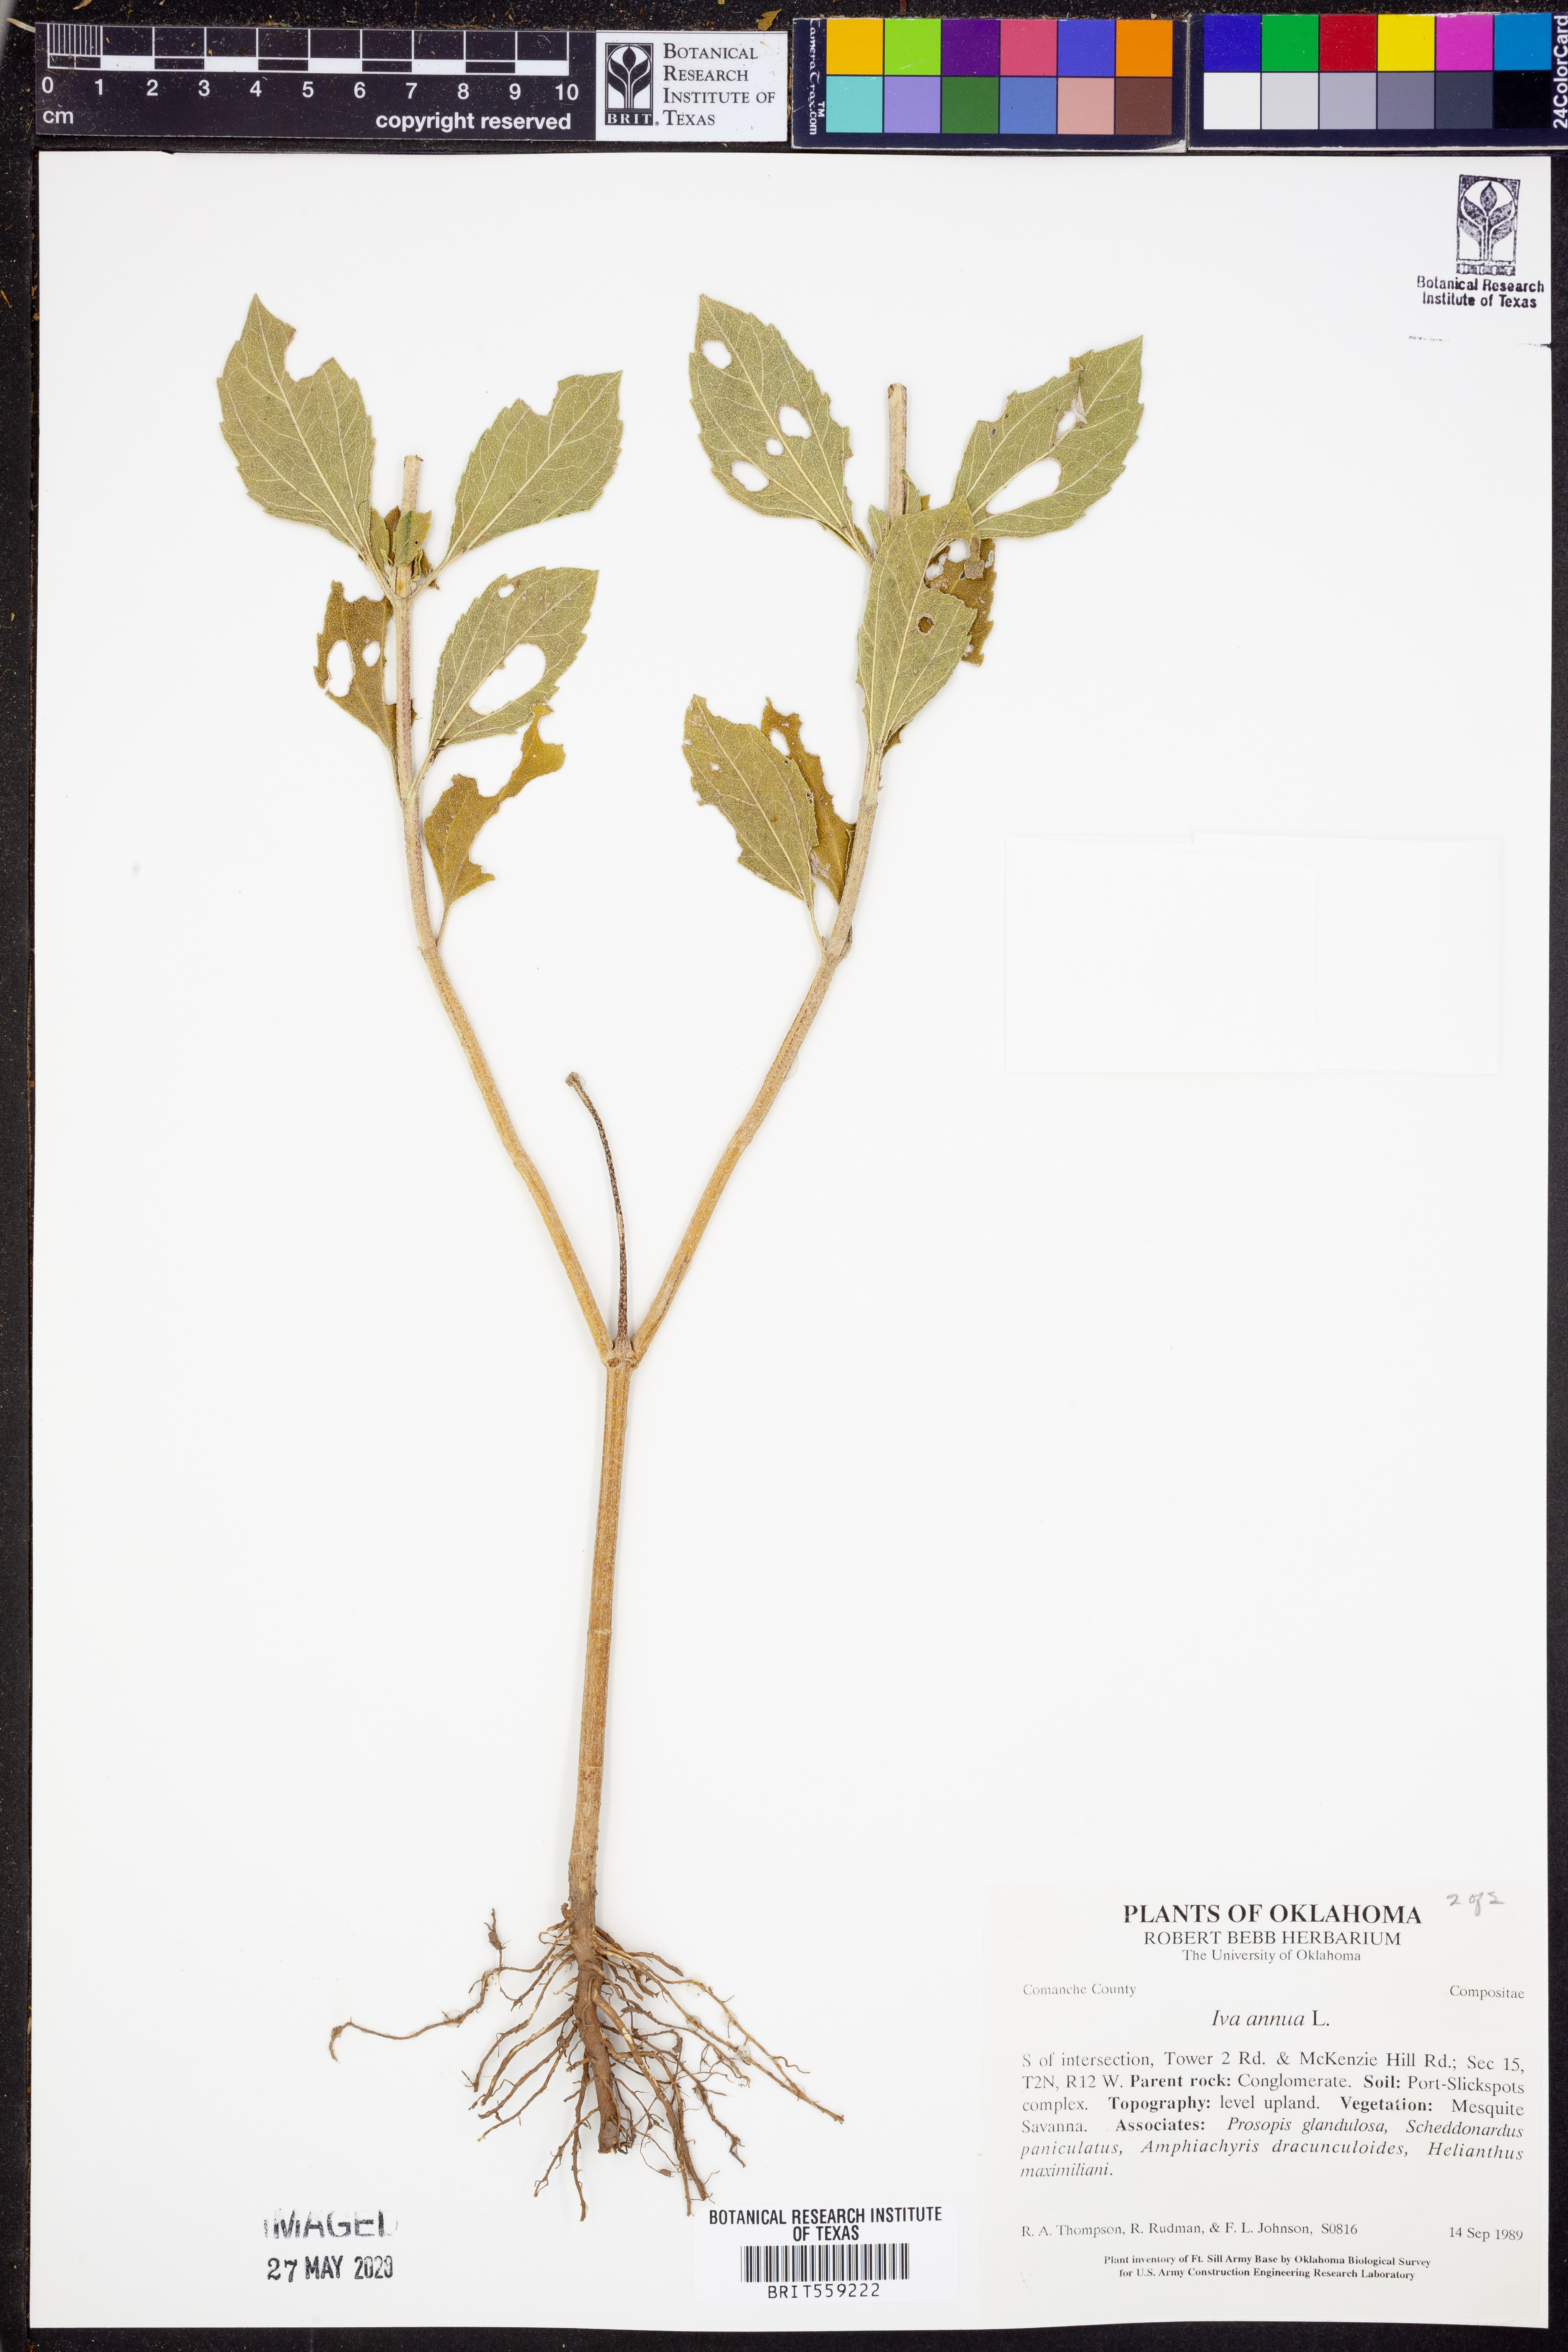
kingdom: Plantae
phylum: Tracheophyta
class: Magnoliopsida
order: Asterales
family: Asteraceae
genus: Iva
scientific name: Iva annua
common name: Marsh-elder
